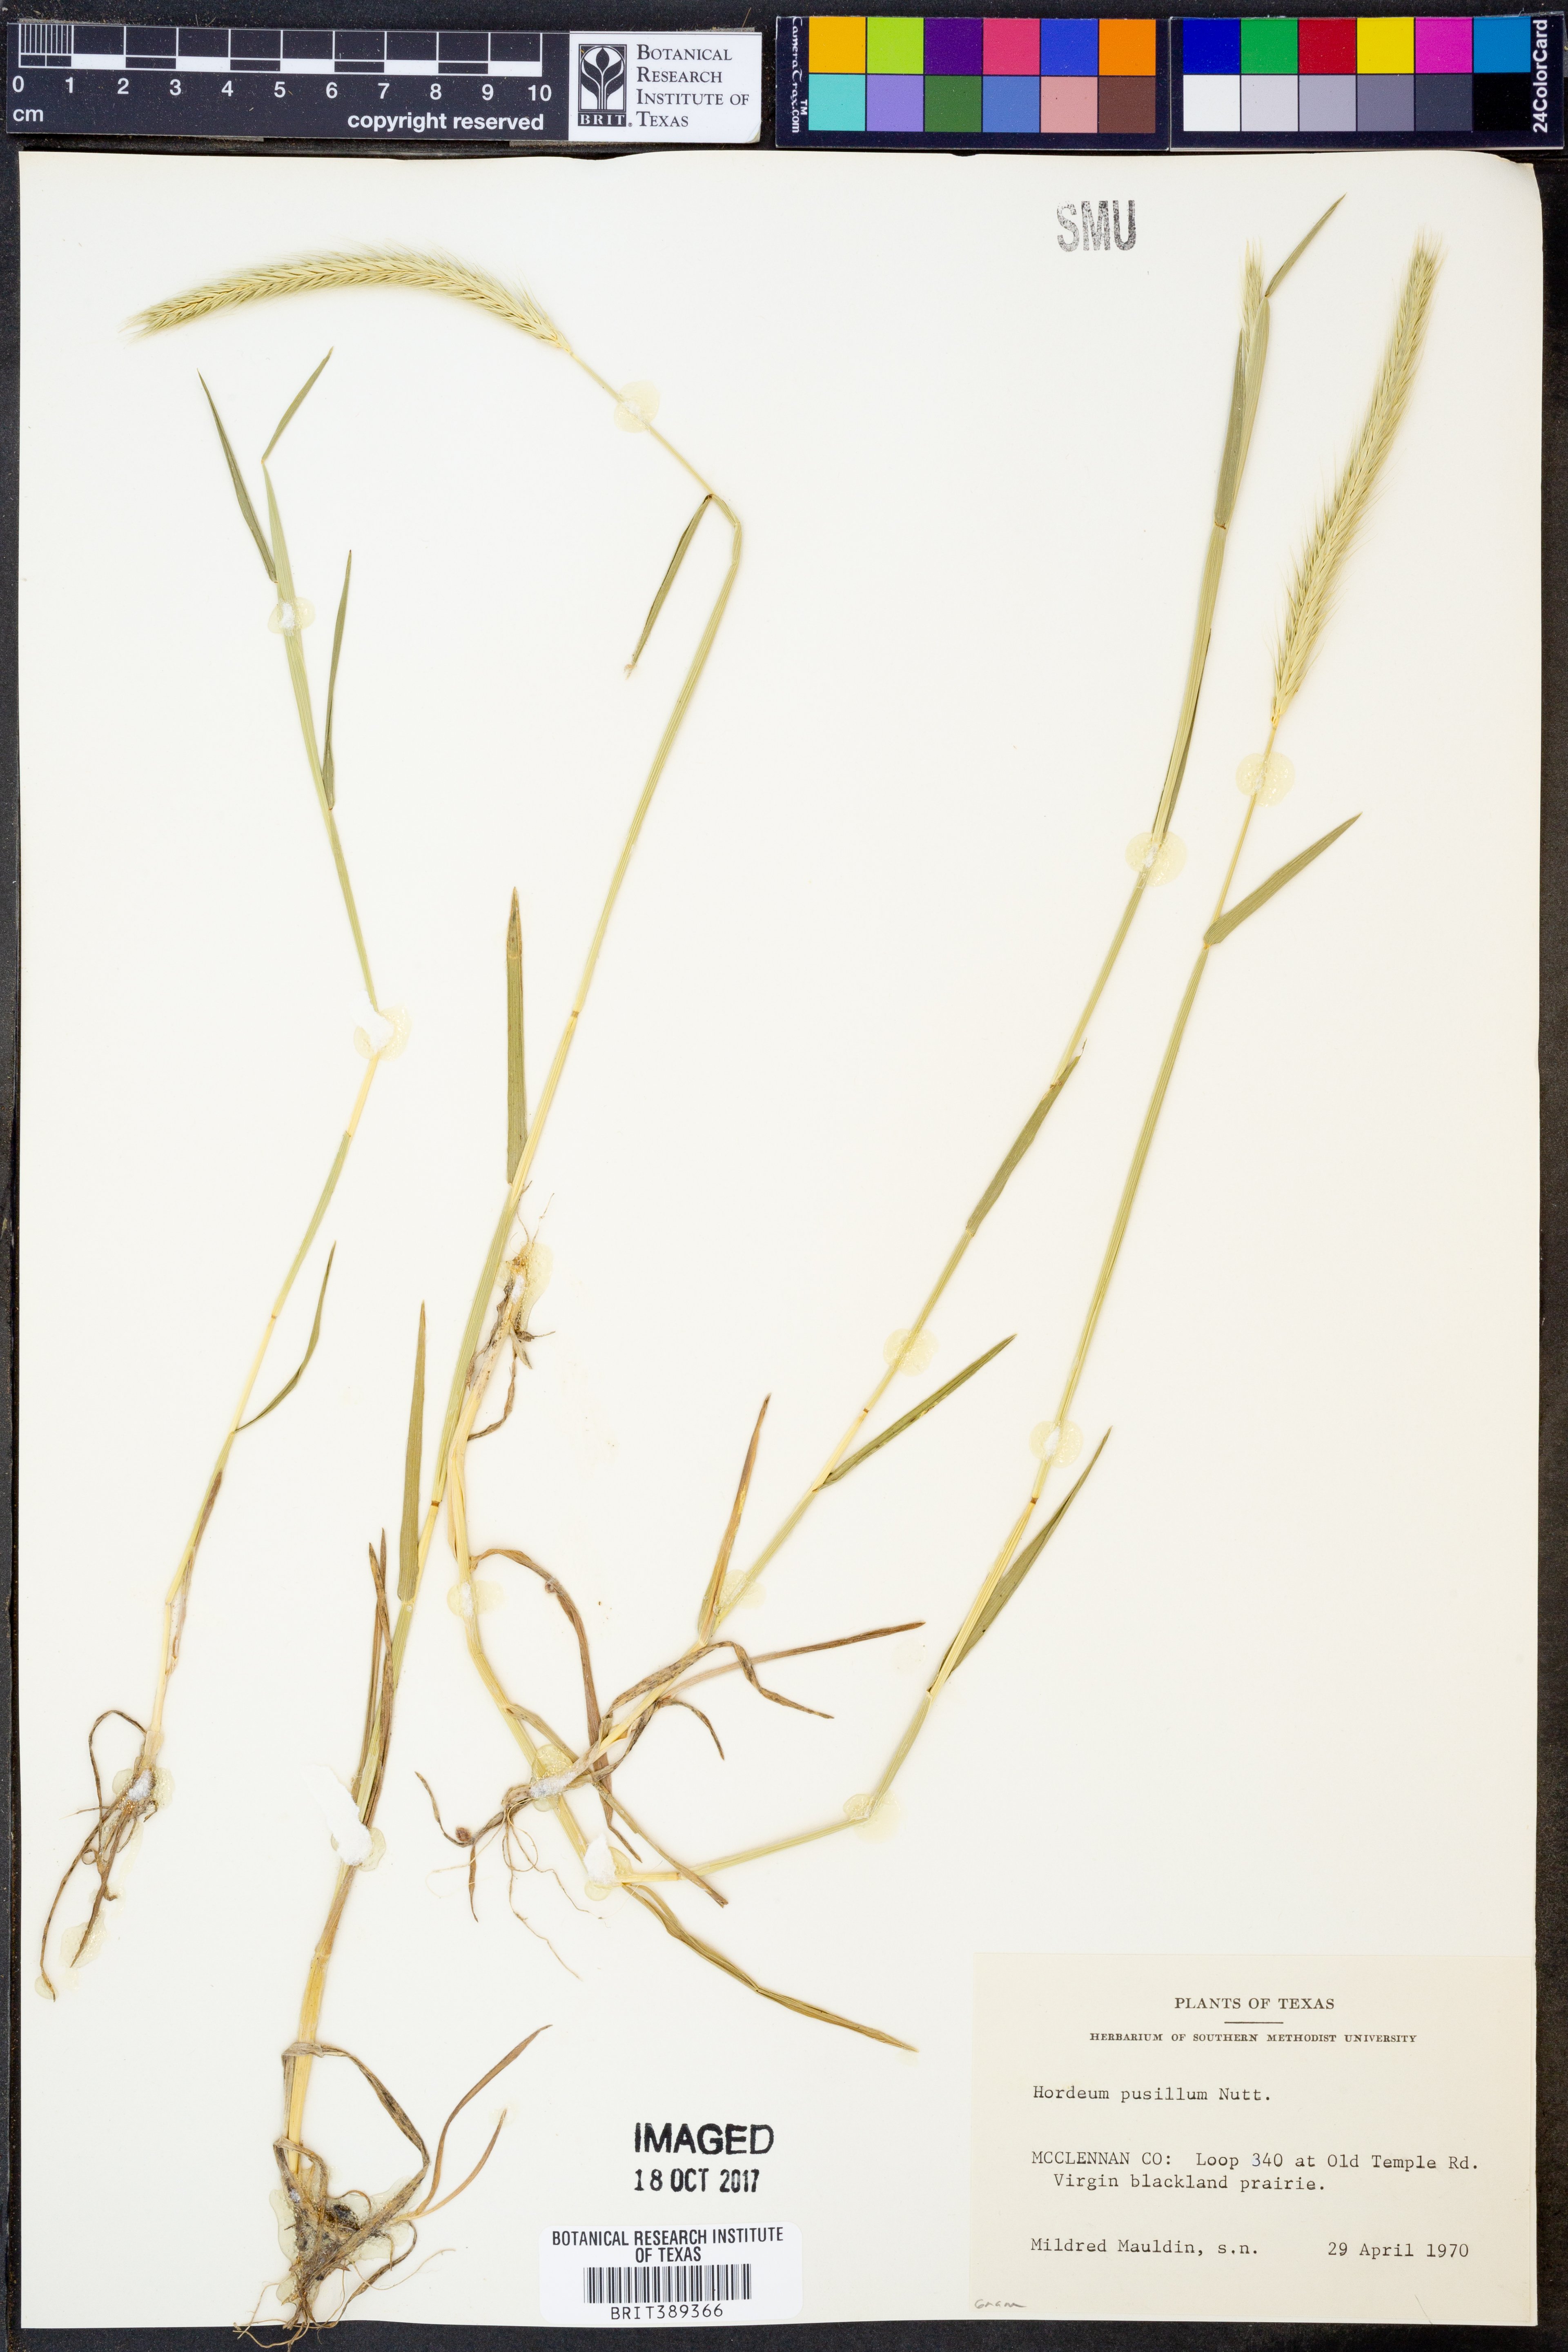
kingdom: Plantae
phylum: Tracheophyta
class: Liliopsida
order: Poales
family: Poaceae
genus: Hordeum
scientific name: Hordeum pusillum
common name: Little barley
